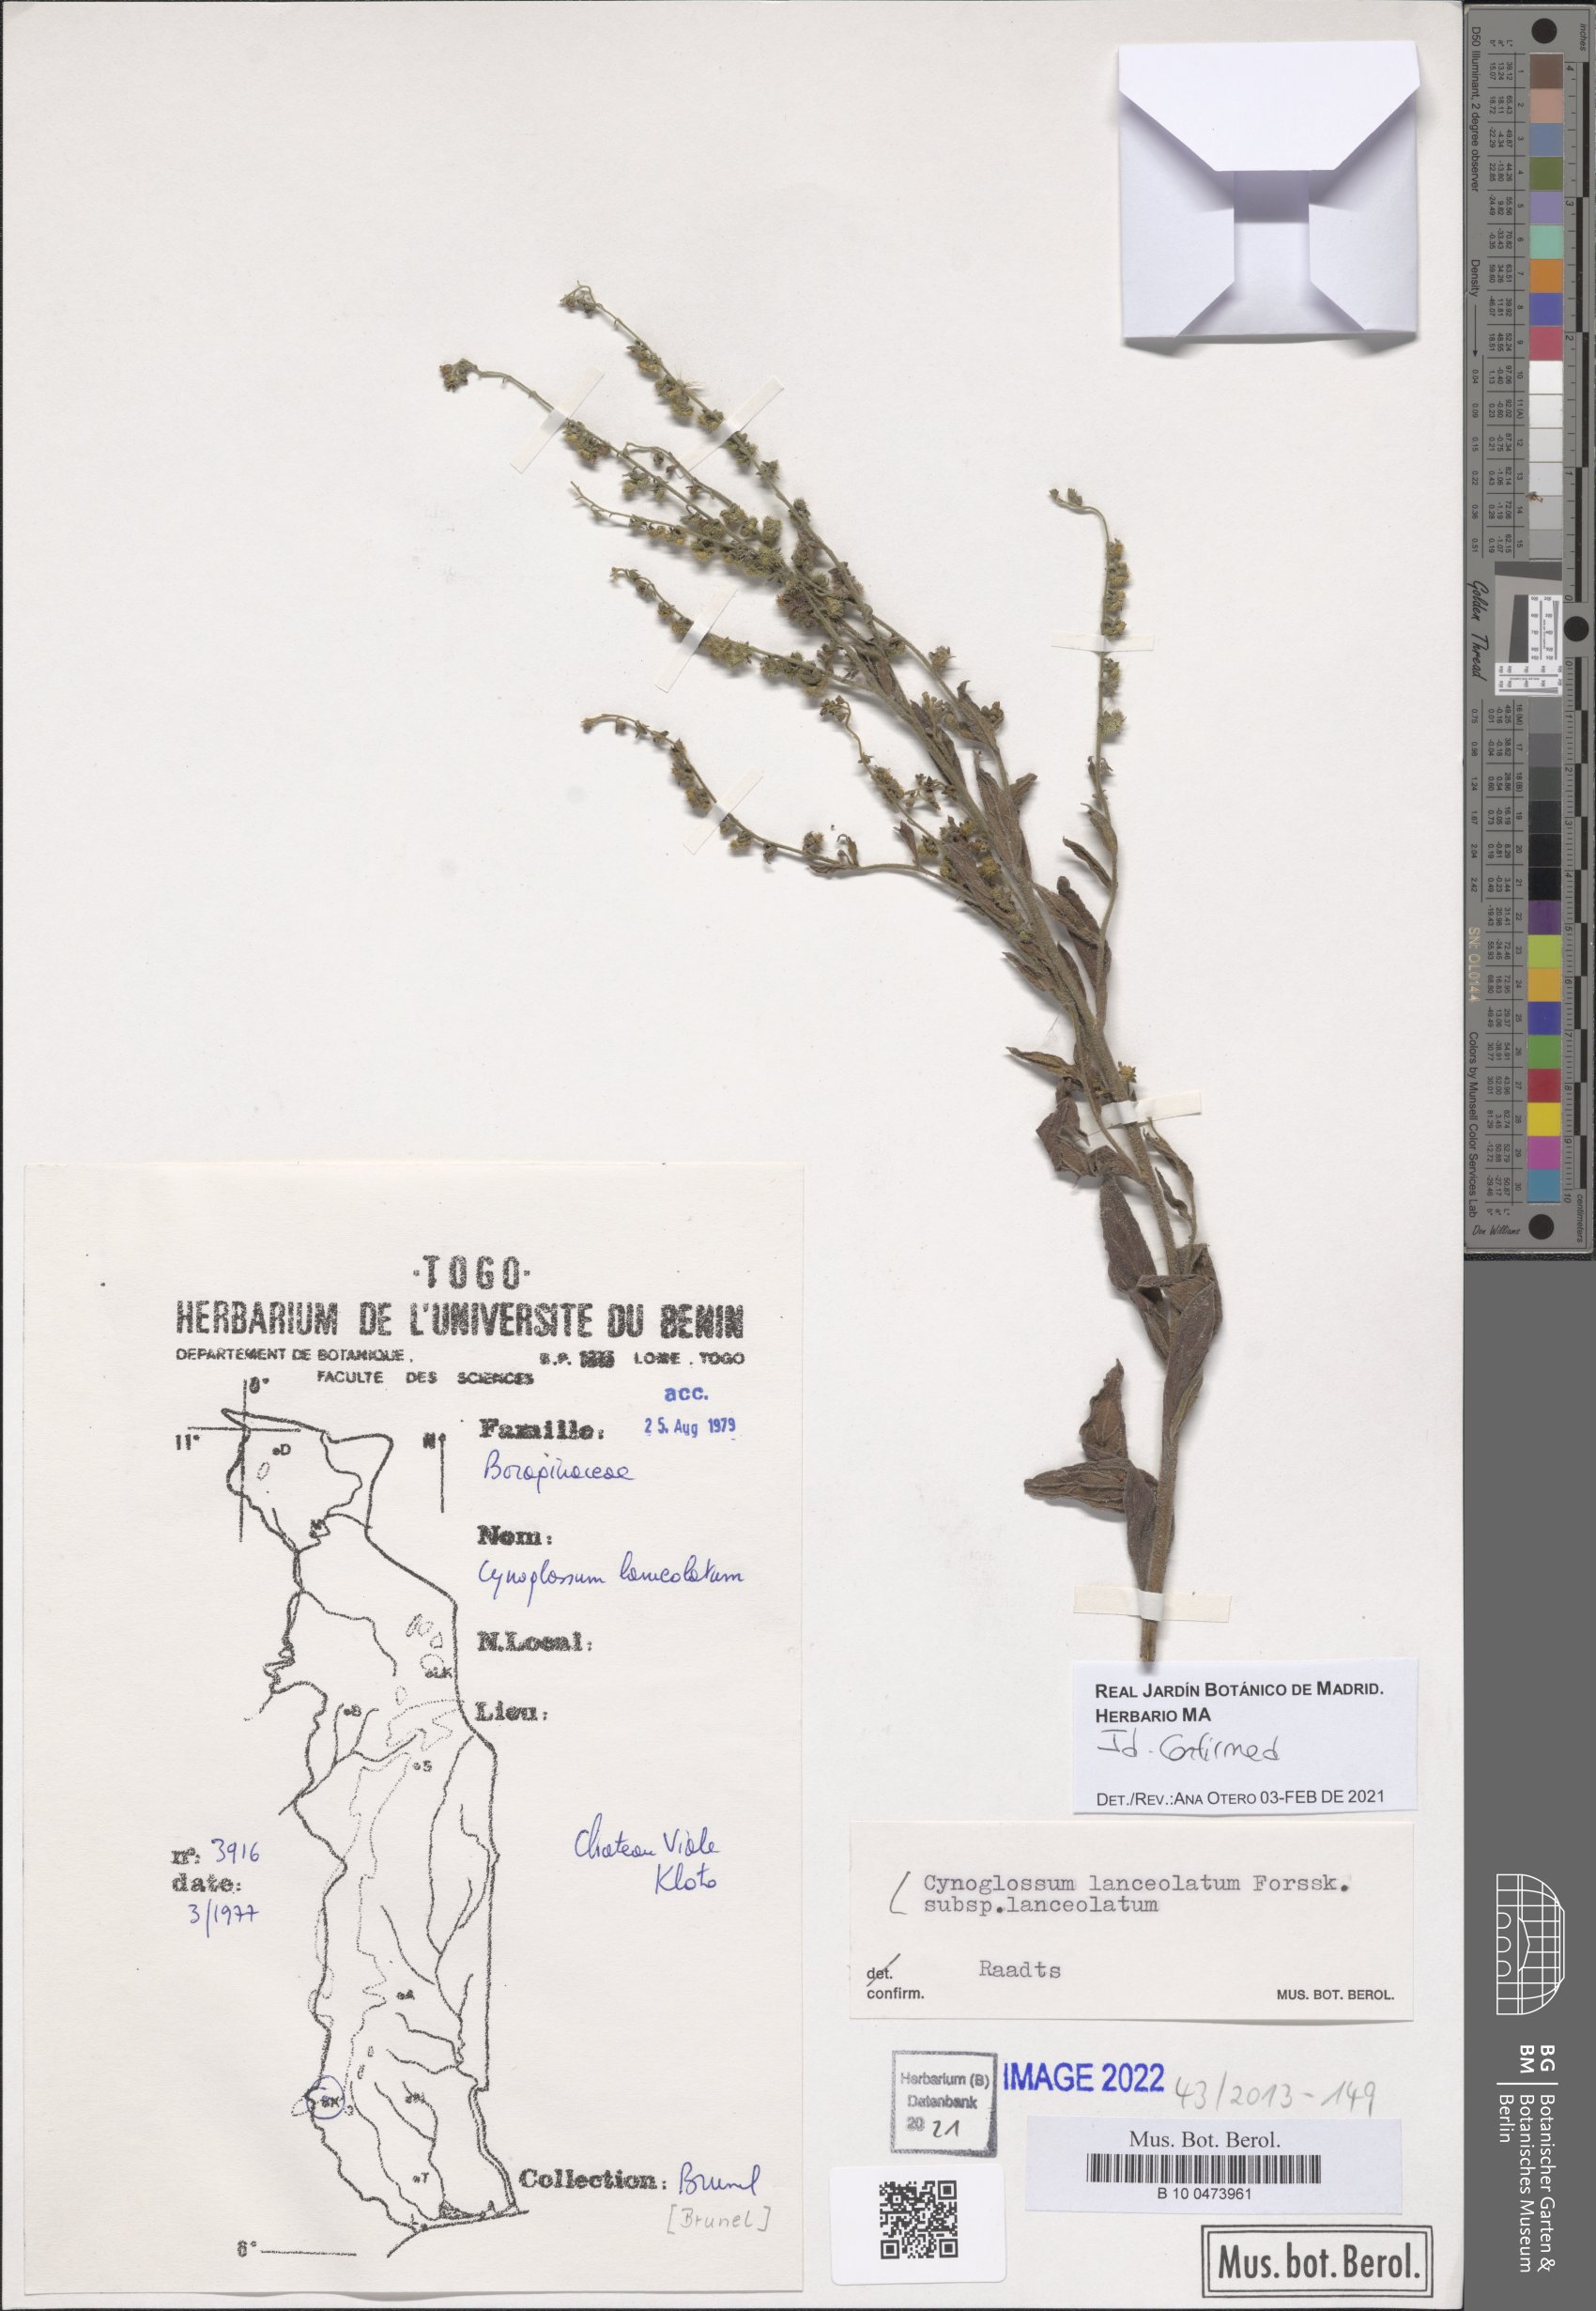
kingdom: Plantae
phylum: Tracheophyta
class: Magnoliopsida
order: Boraginales
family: Boraginaceae
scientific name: Boraginaceae
